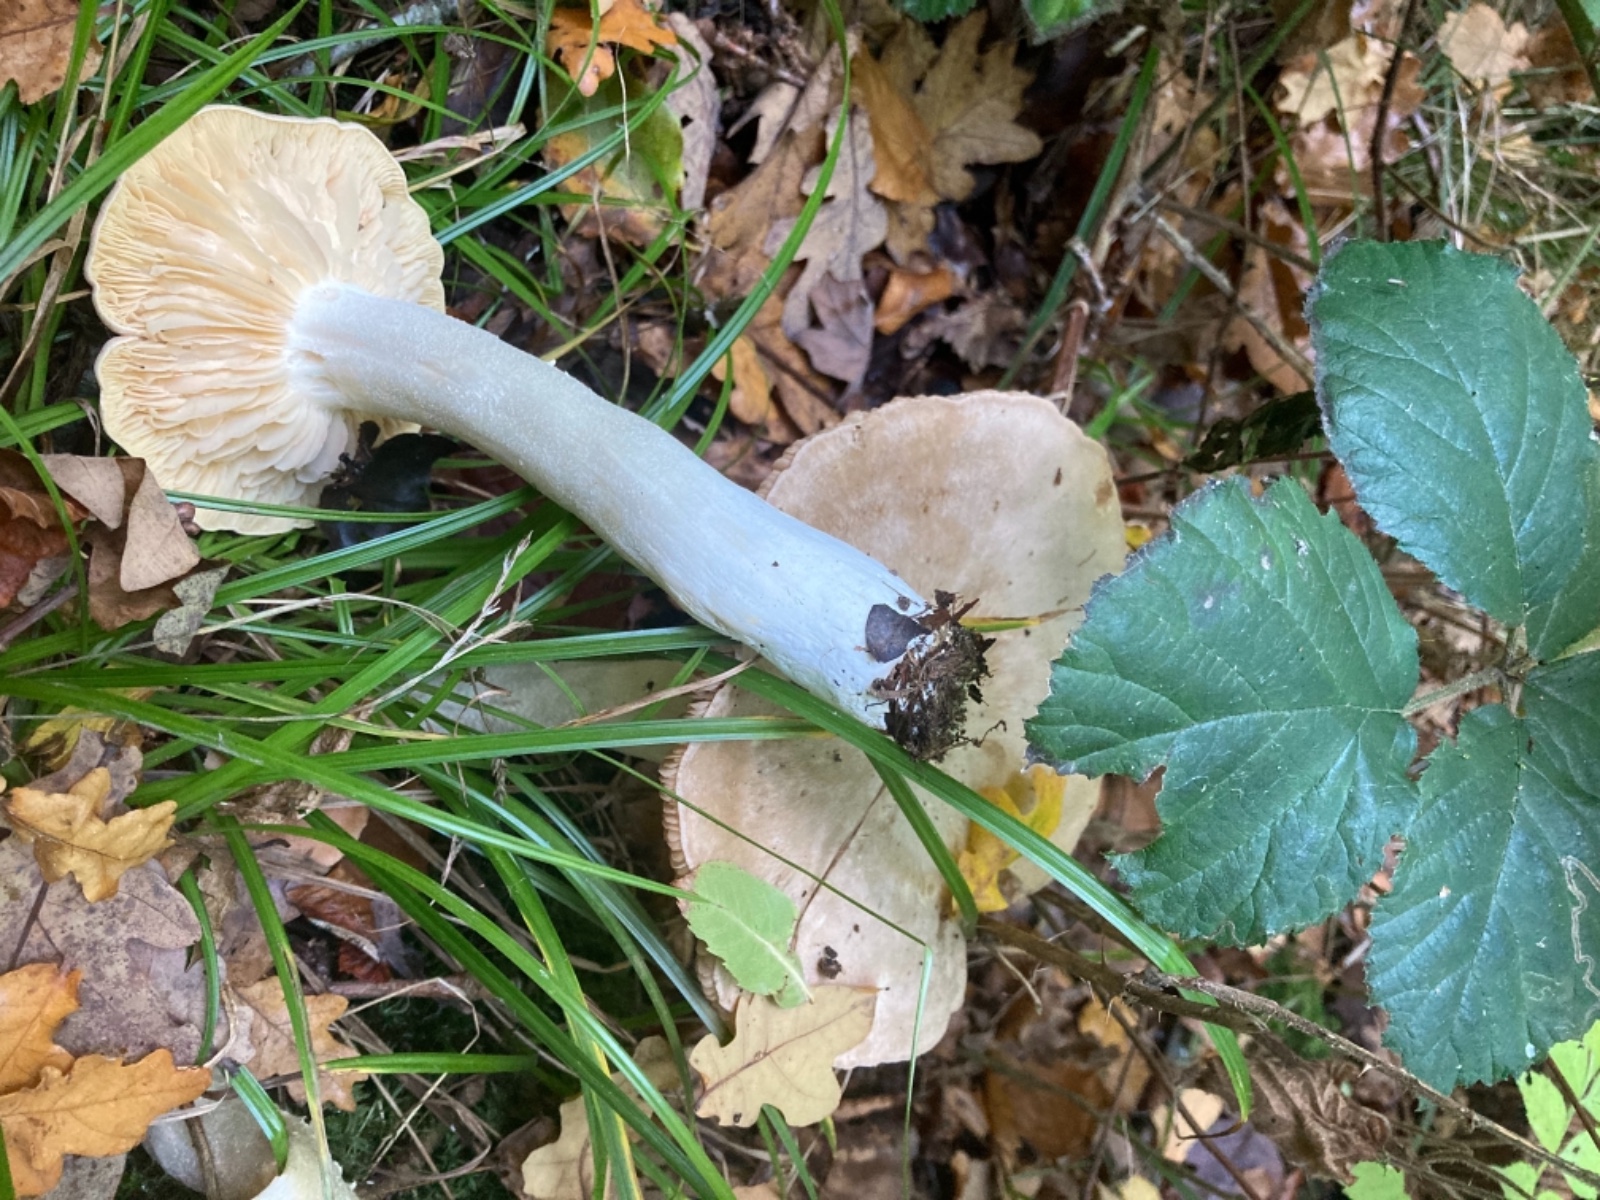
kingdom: Fungi
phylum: Basidiomycota
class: Agaricomycetes
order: Agaricales
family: Entolomataceae
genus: Entoloma
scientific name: Entoloma sinuatum
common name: giftig rødblad
